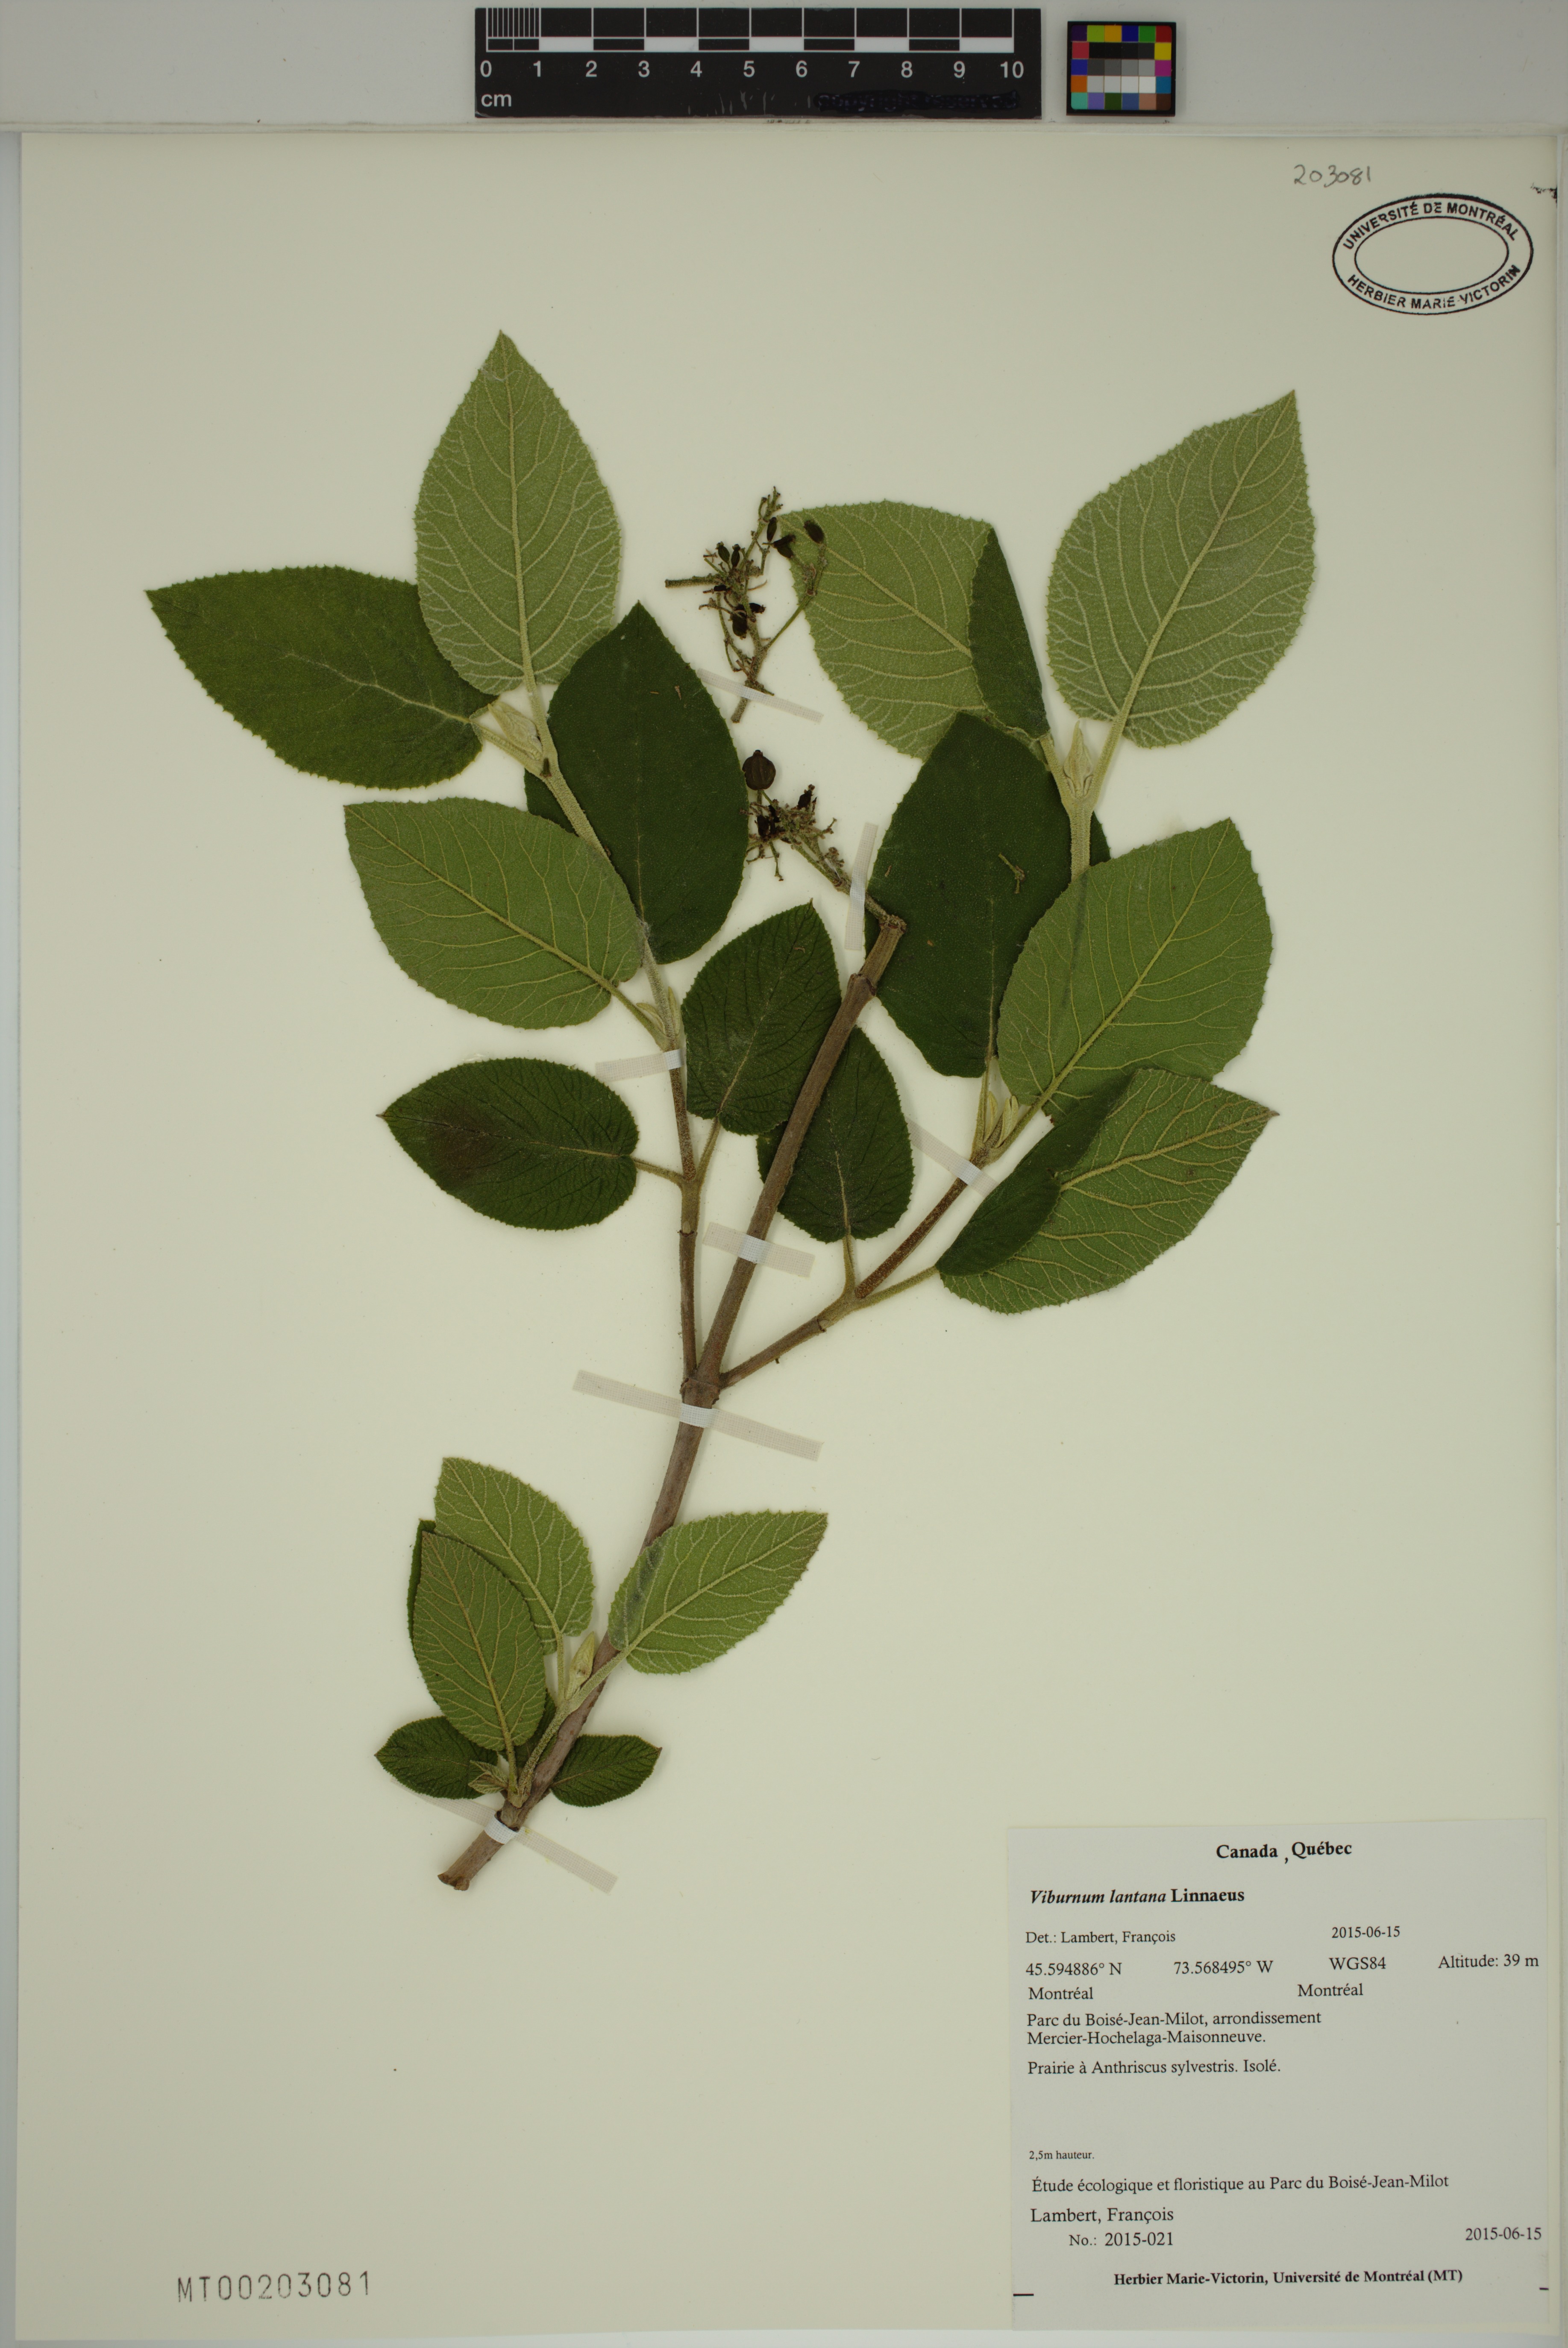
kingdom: Plantae
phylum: Tracheophyta
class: Magnoliopsida
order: Dipsacales
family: Viburnaceae
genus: Viburnum
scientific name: Viburnum lantana
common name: Wayfaring tree
